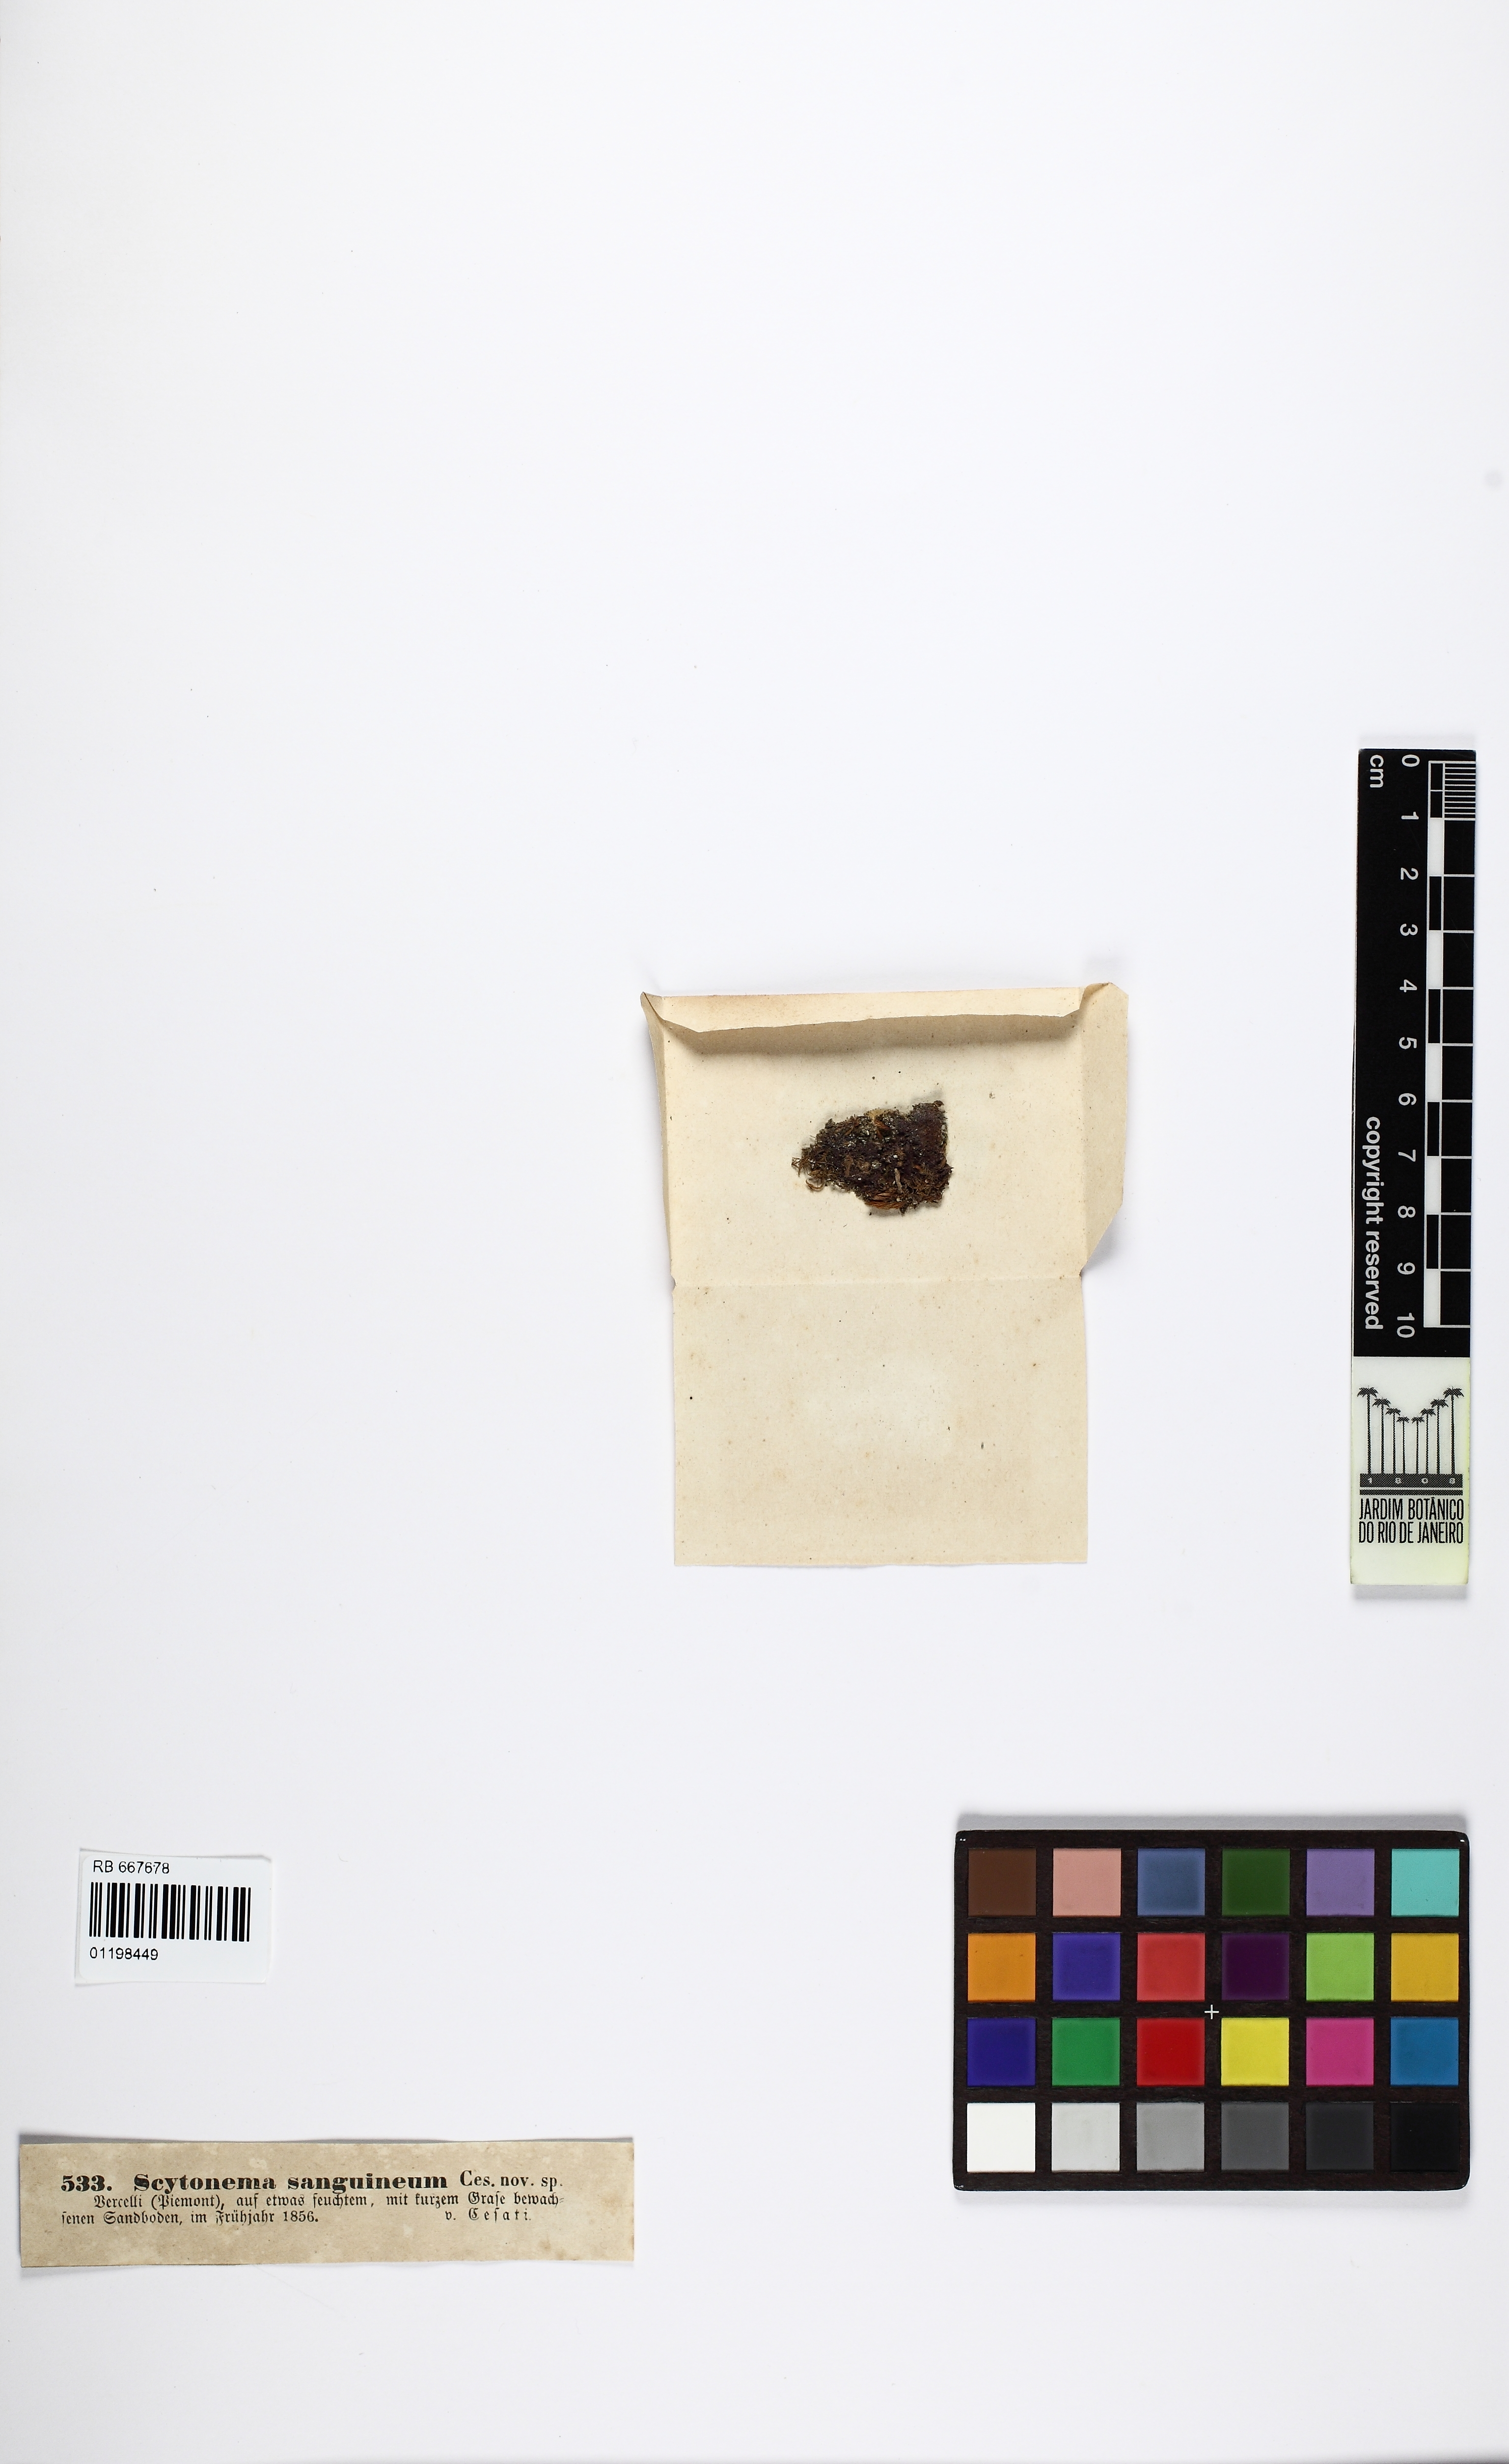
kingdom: Bacteria
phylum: Cyanobacteria
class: Cyanobacteriia
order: Cyanobacteriales
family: Scytonemataceae
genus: Scytonema
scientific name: Scytonema
